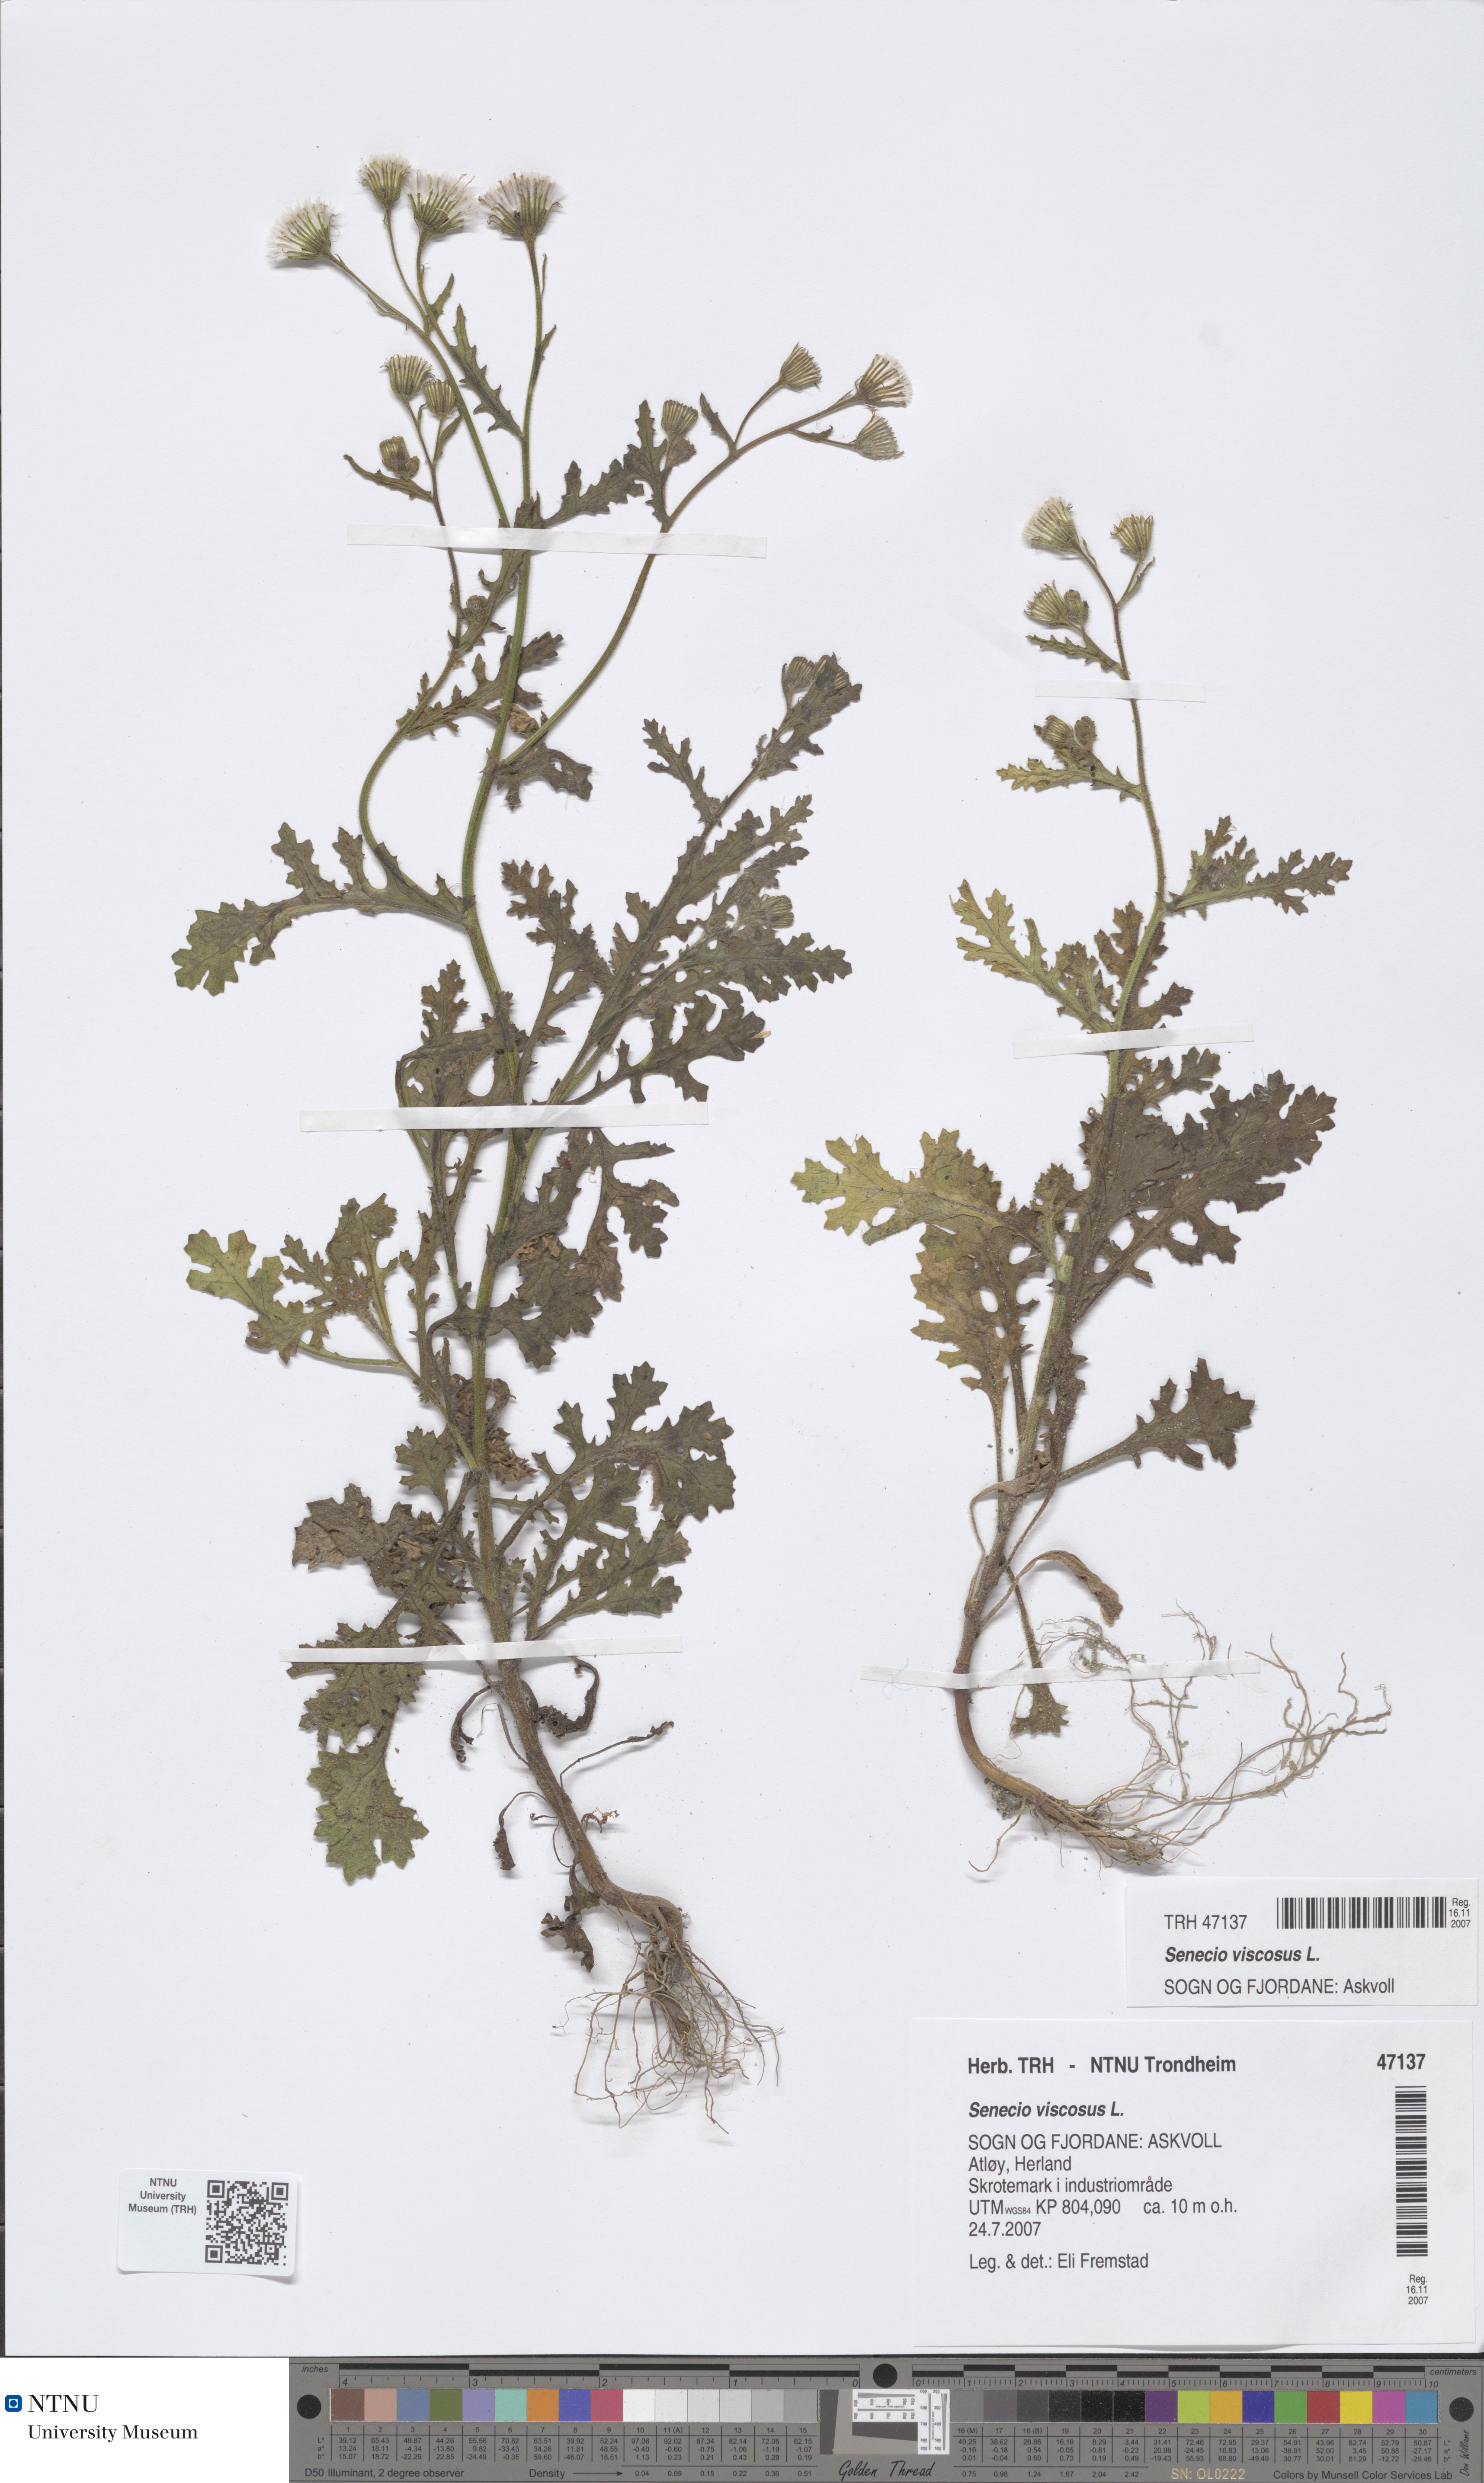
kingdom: Plantae
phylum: Tracheophyta
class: Magnoliopsida
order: Asterales
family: Asteraceae
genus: Senecio
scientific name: Senecio viscosus
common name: Sticky groundsel
